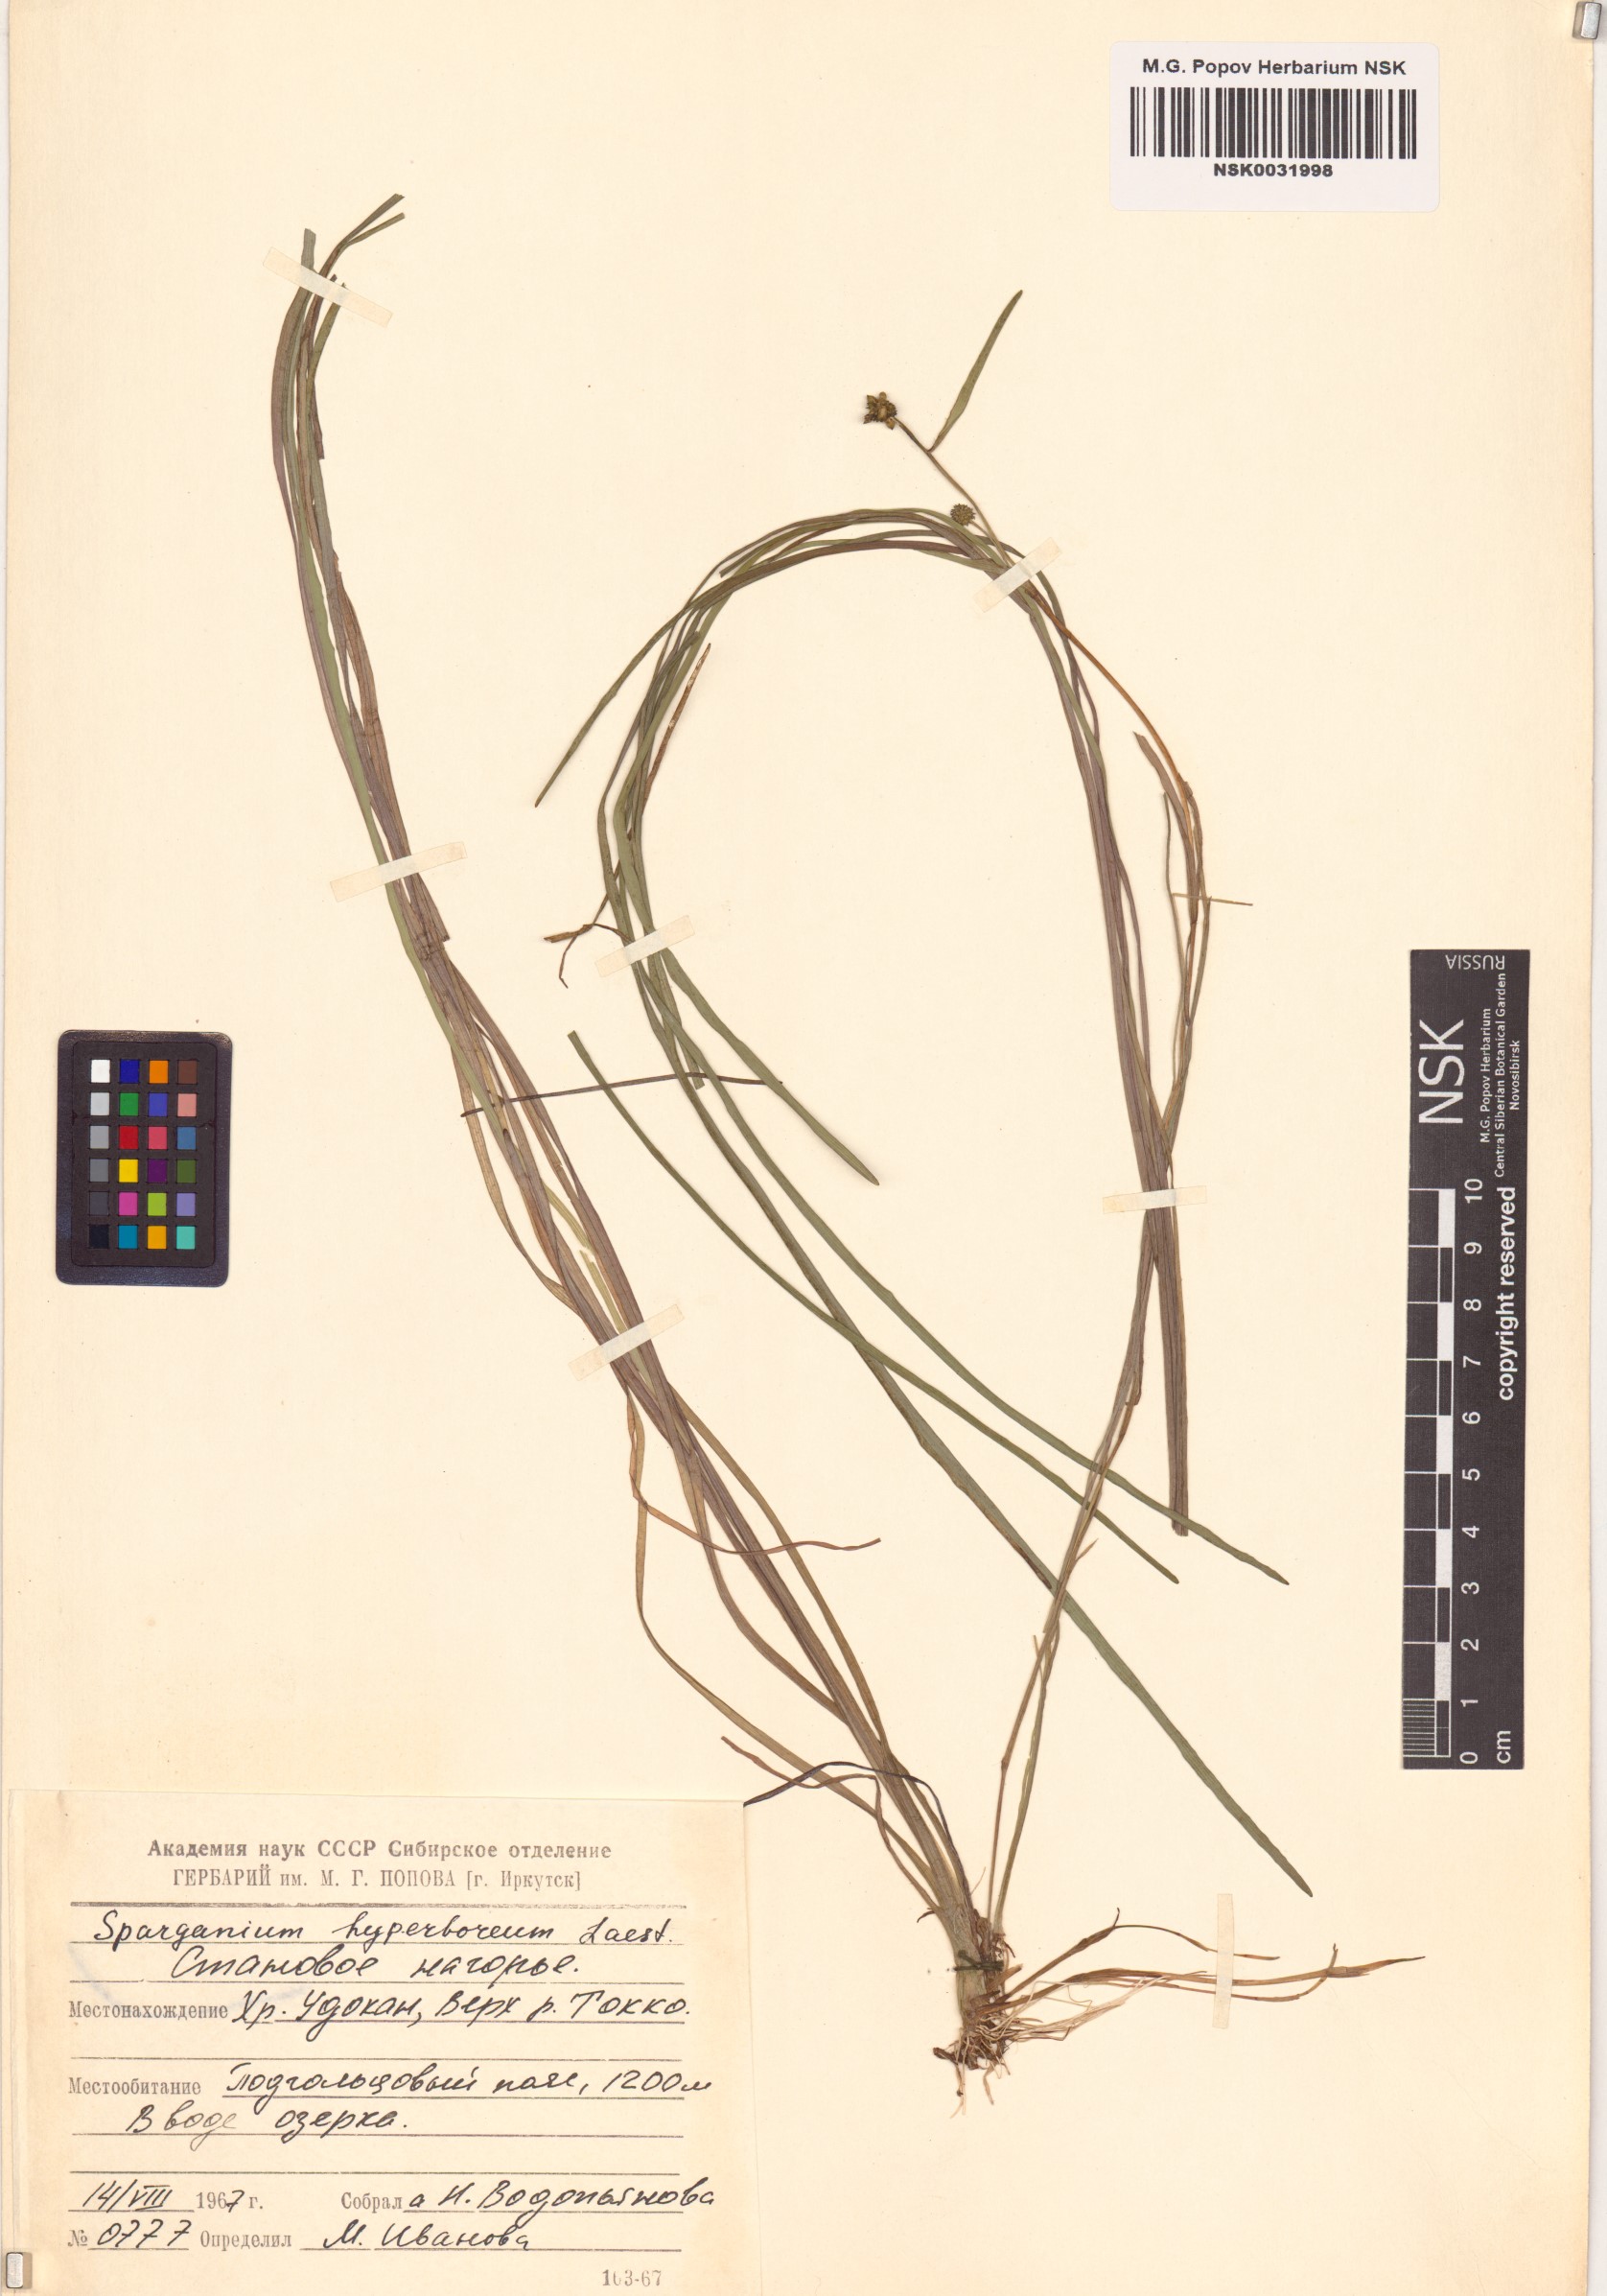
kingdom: Plantae
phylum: Tracheophyta
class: Liliopsida
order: Poales
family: Typhaceae
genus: Sparganium
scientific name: Sparganium hyperboreum
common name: Arctic burreed
